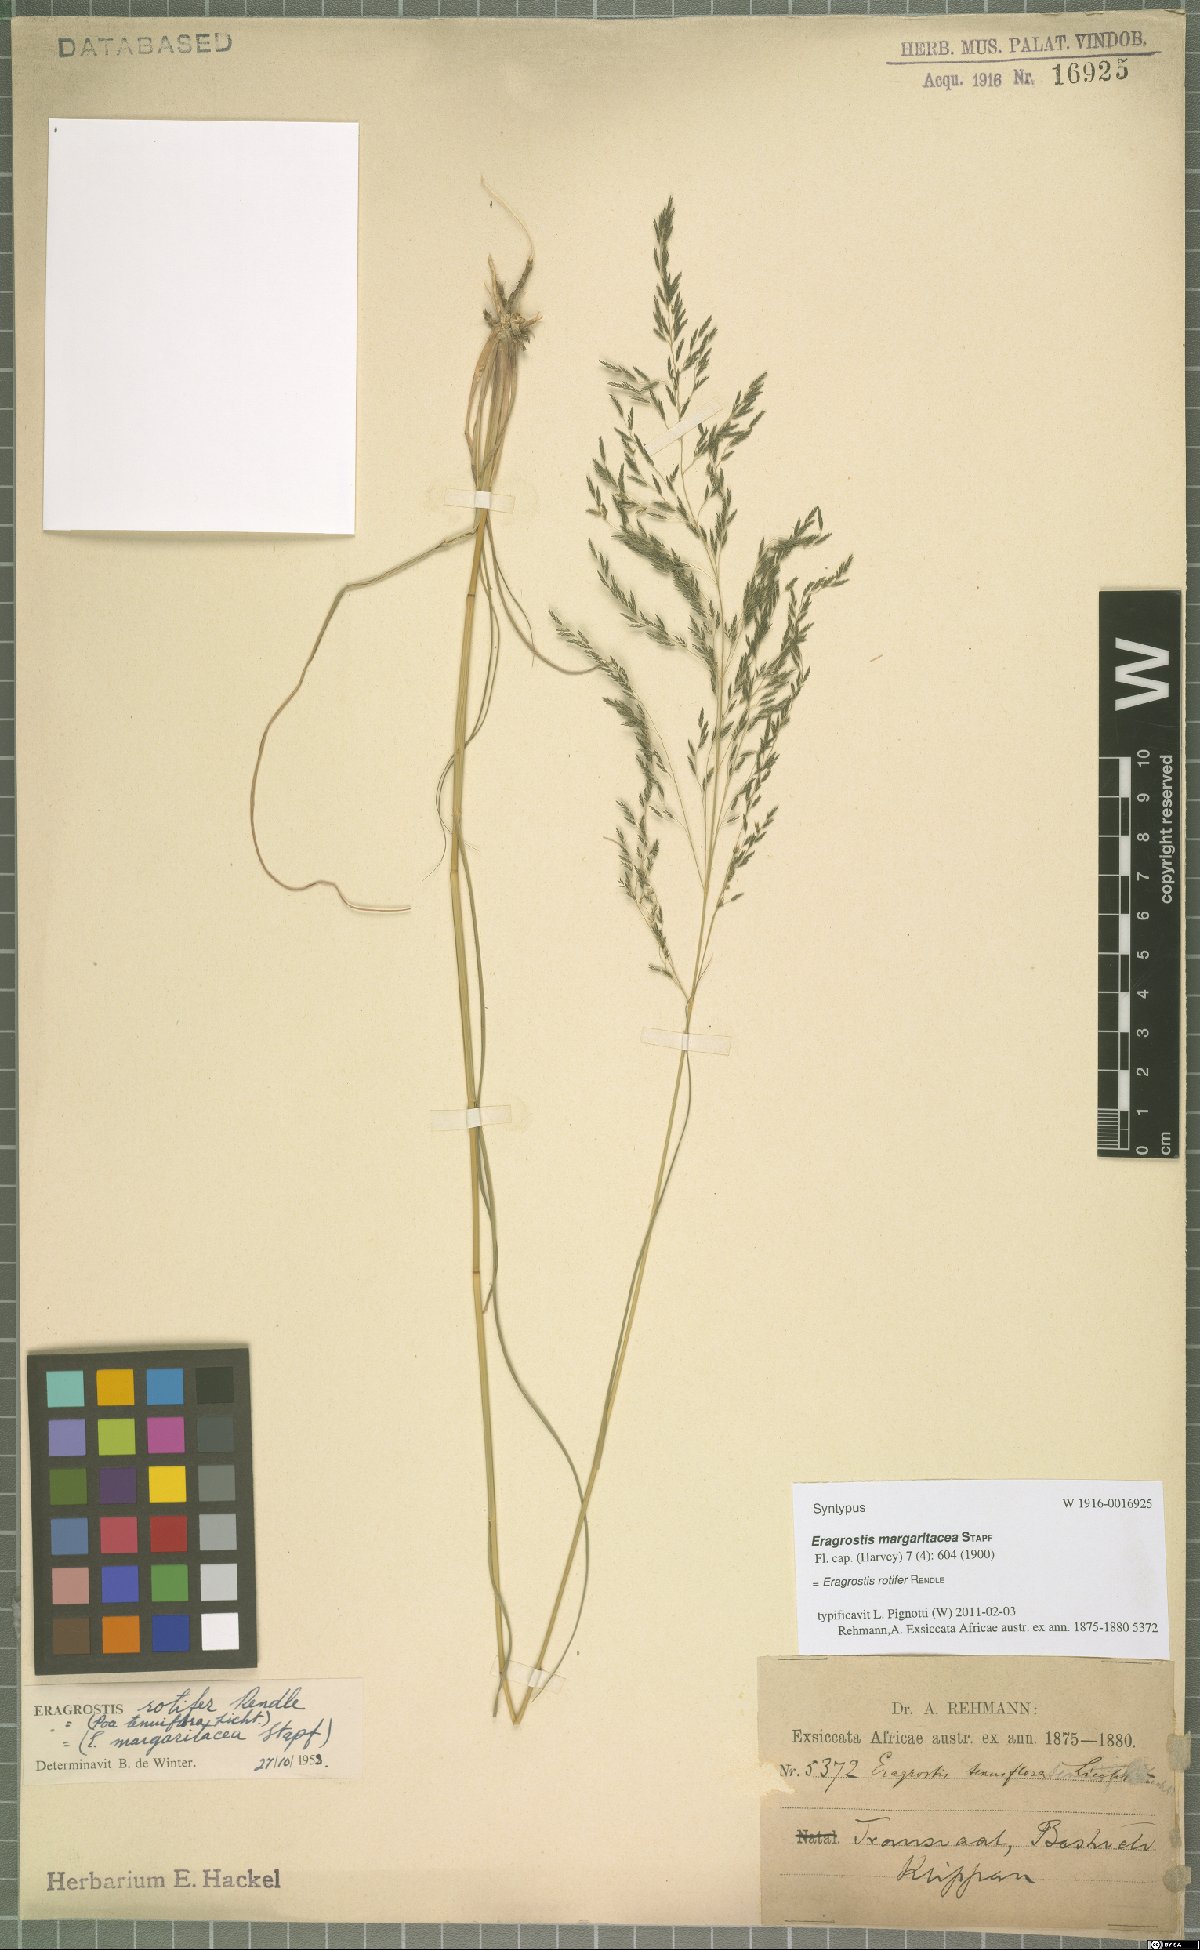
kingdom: Plantae
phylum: Tracheophyta
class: Liliopsida
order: Poales
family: Poaceae
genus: Eragrostis
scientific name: Eragrostis rotifer
